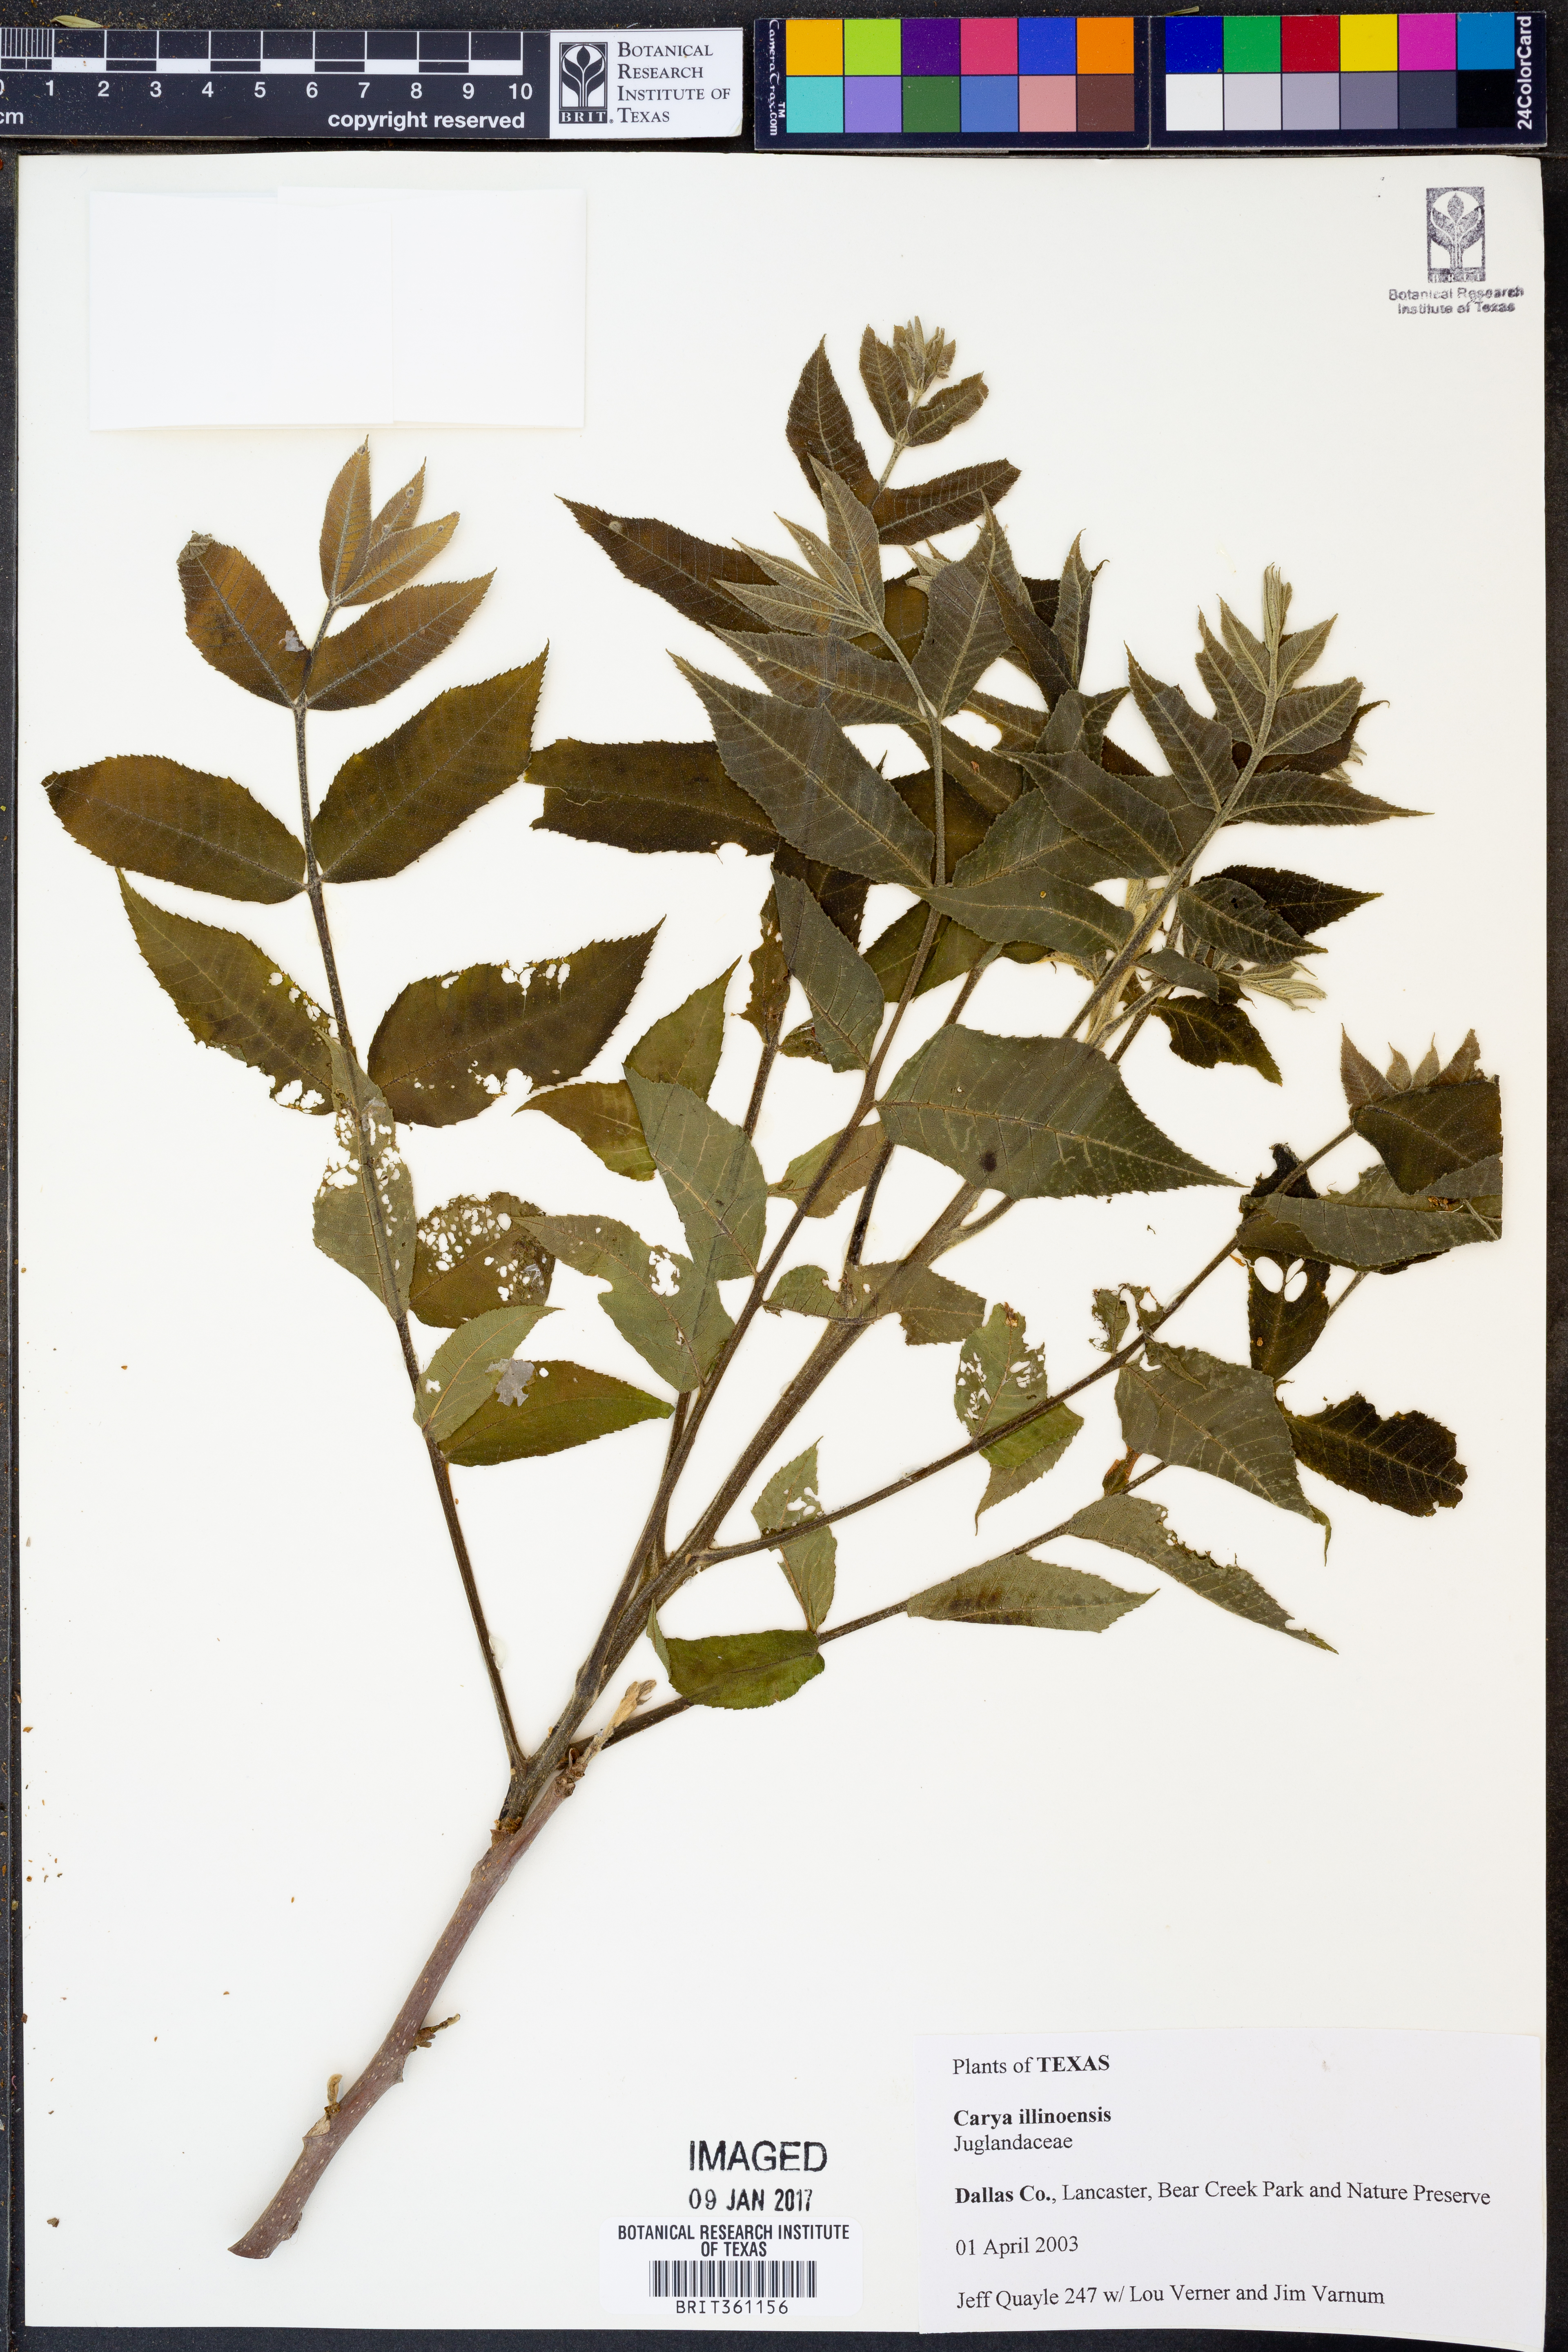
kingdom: Plantae
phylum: Tracheophyta
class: Magnoliopsida
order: Fagales
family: Juglandaceae
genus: Carya
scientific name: Carya illinoinensis
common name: Pecan
